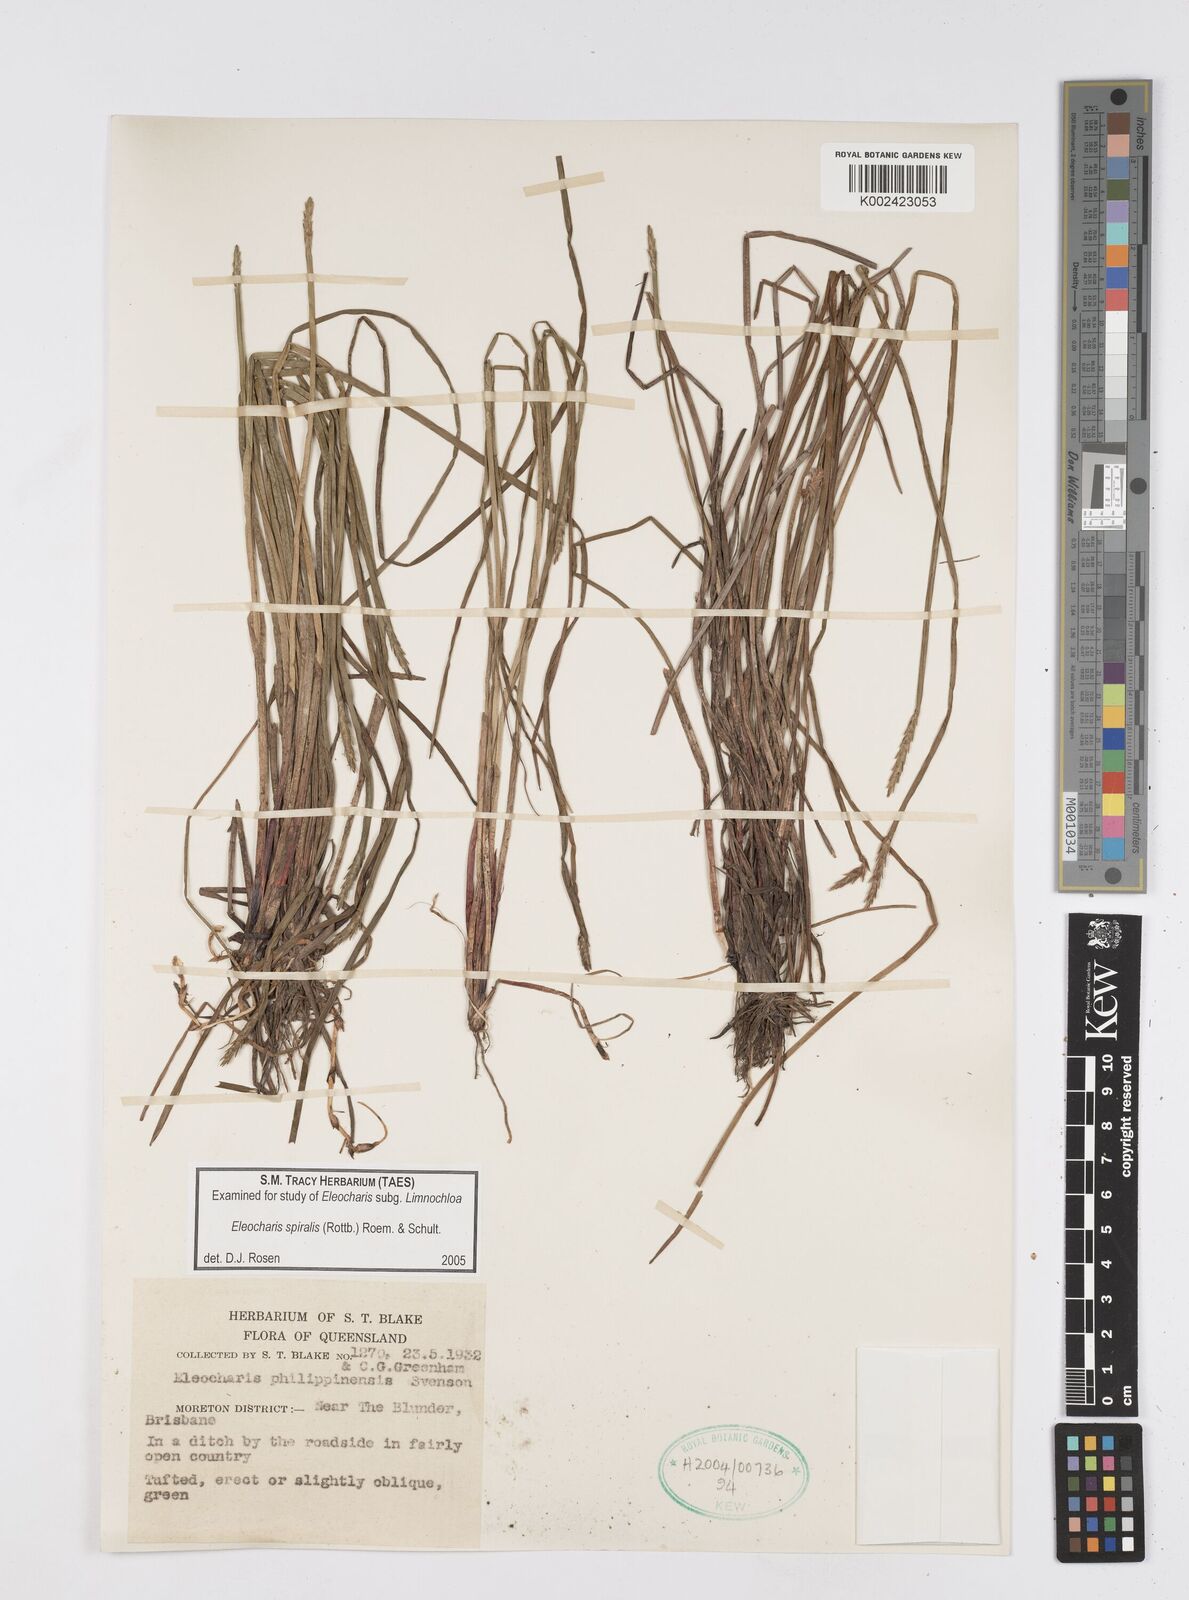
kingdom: Plantae
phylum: Tracheophyta
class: Liliopsida
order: Poales
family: Cyperaceae
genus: Eleocharis
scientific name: Eleocharis spiralis
